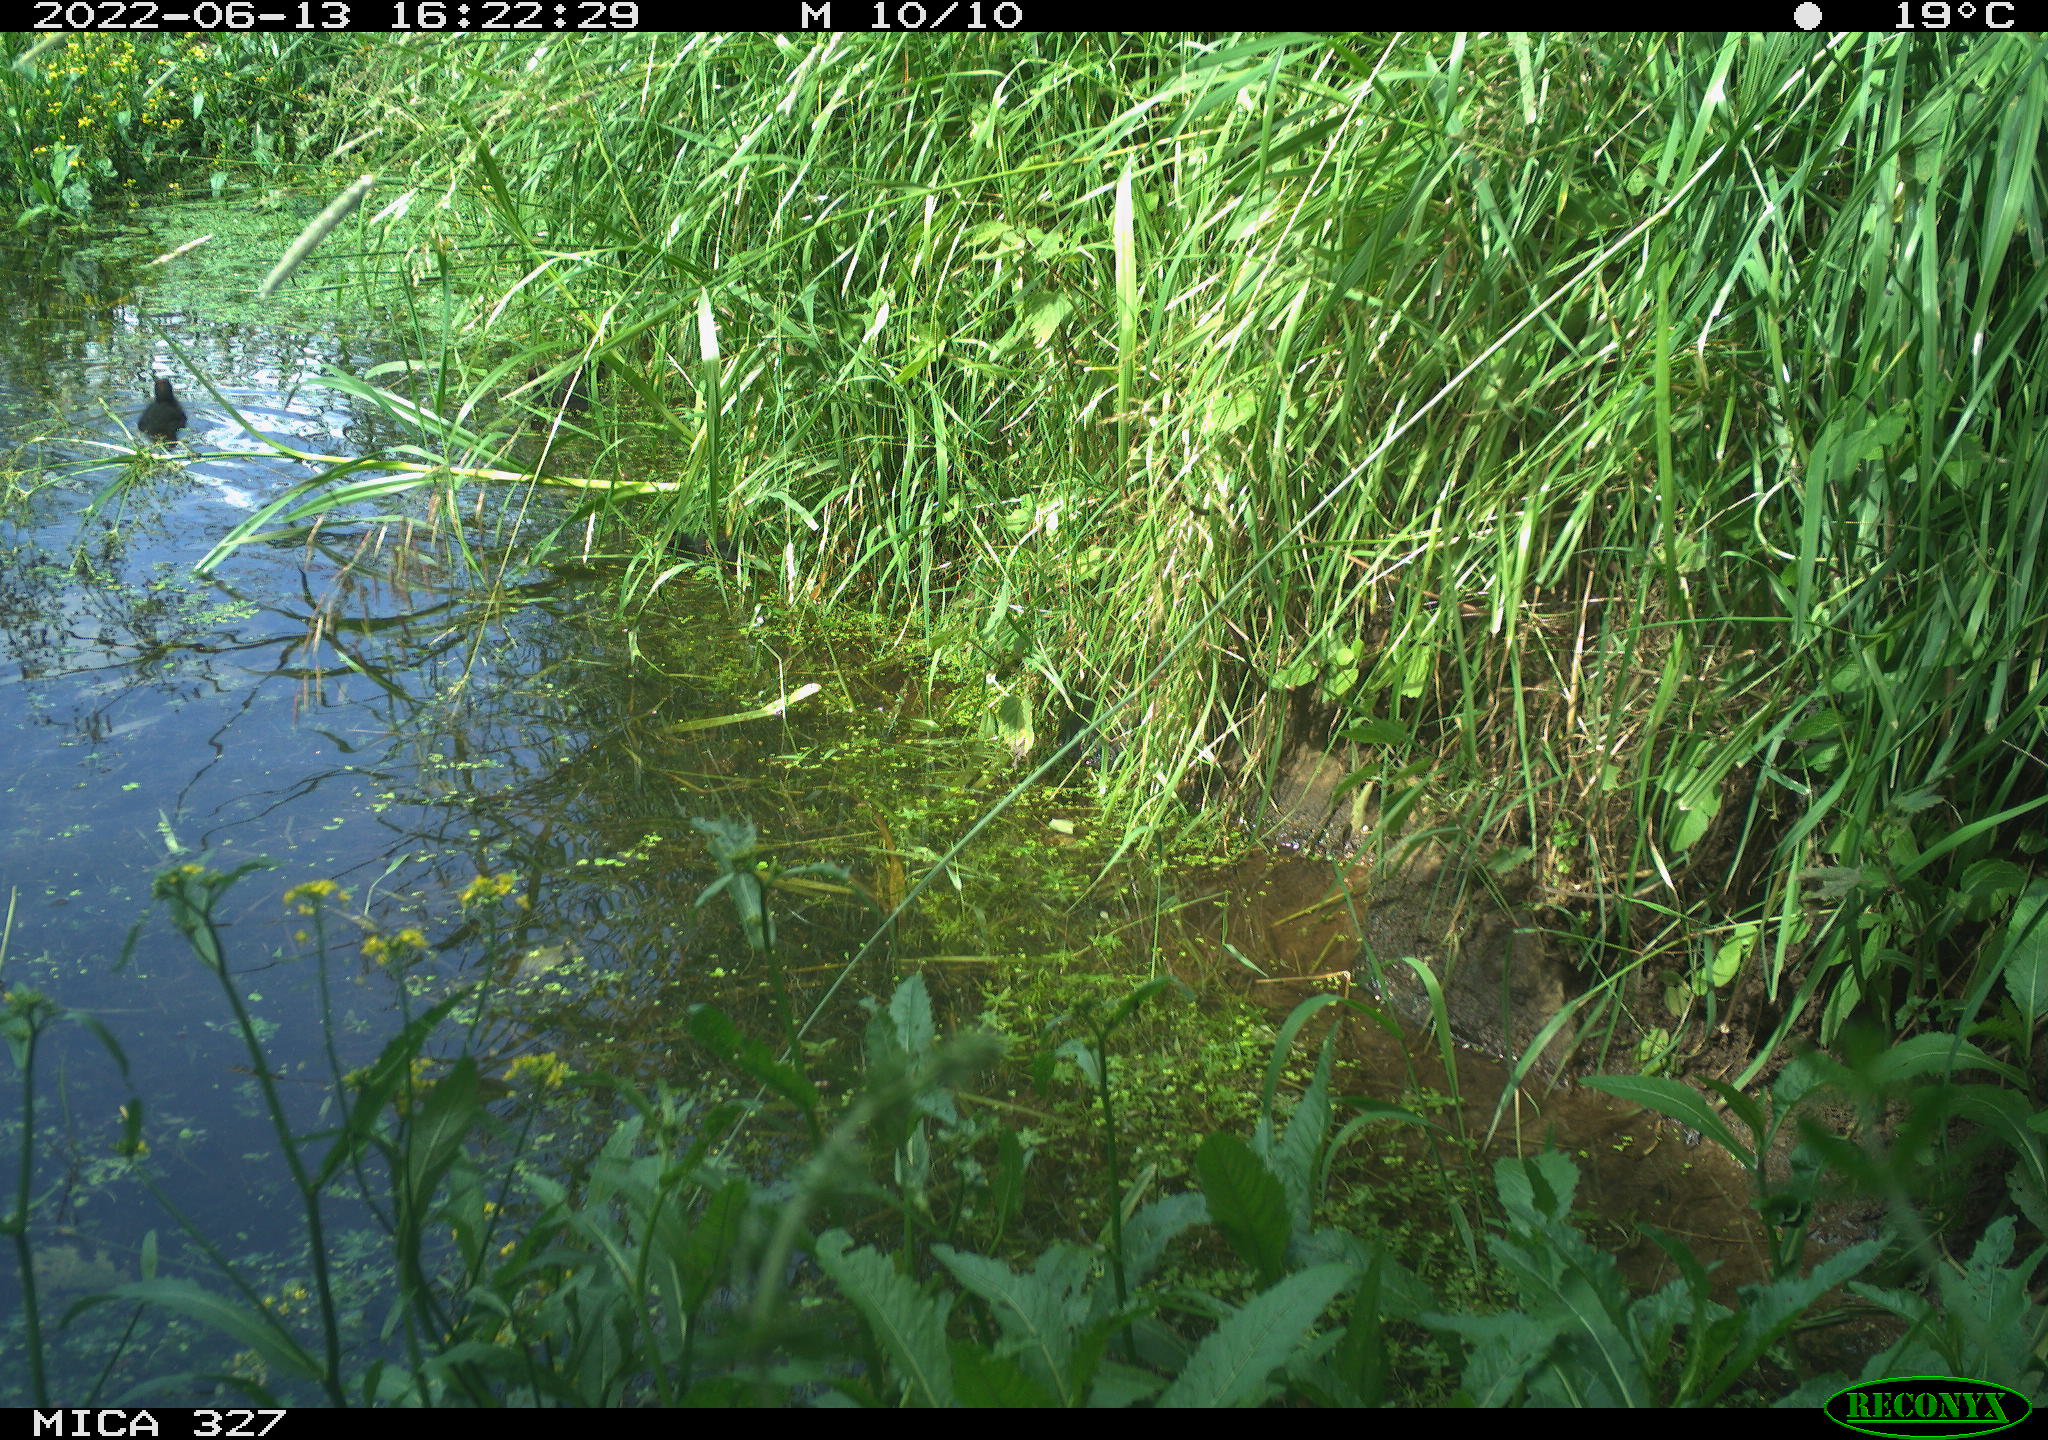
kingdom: Animalia
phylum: Chordata
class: Aves
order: Gruiformes
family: Rallidae
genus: Gallinula
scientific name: Gallinula chloropus
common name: Common moorhen
